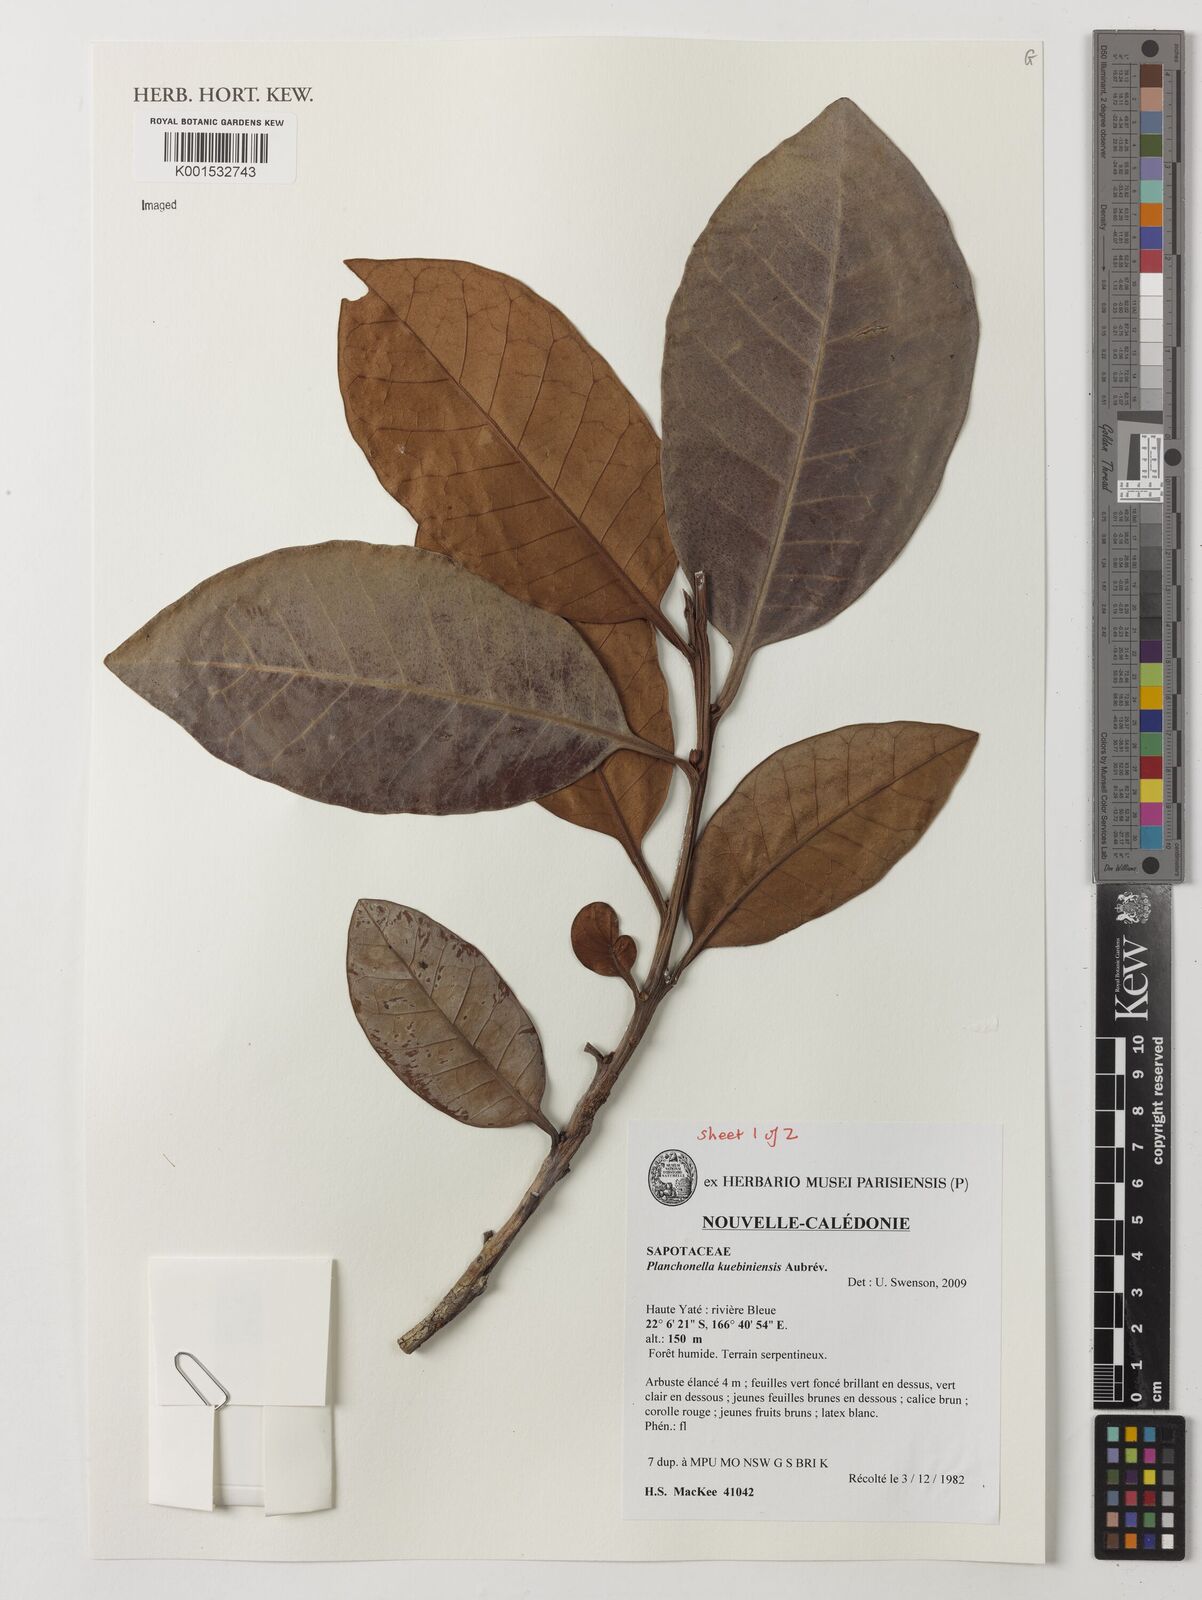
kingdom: Plantae
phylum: Tracheophyta
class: Magnoliopsida
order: Ericales
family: Sapotaceae
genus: Planchonella
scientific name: Planchonella kuebiniensis
